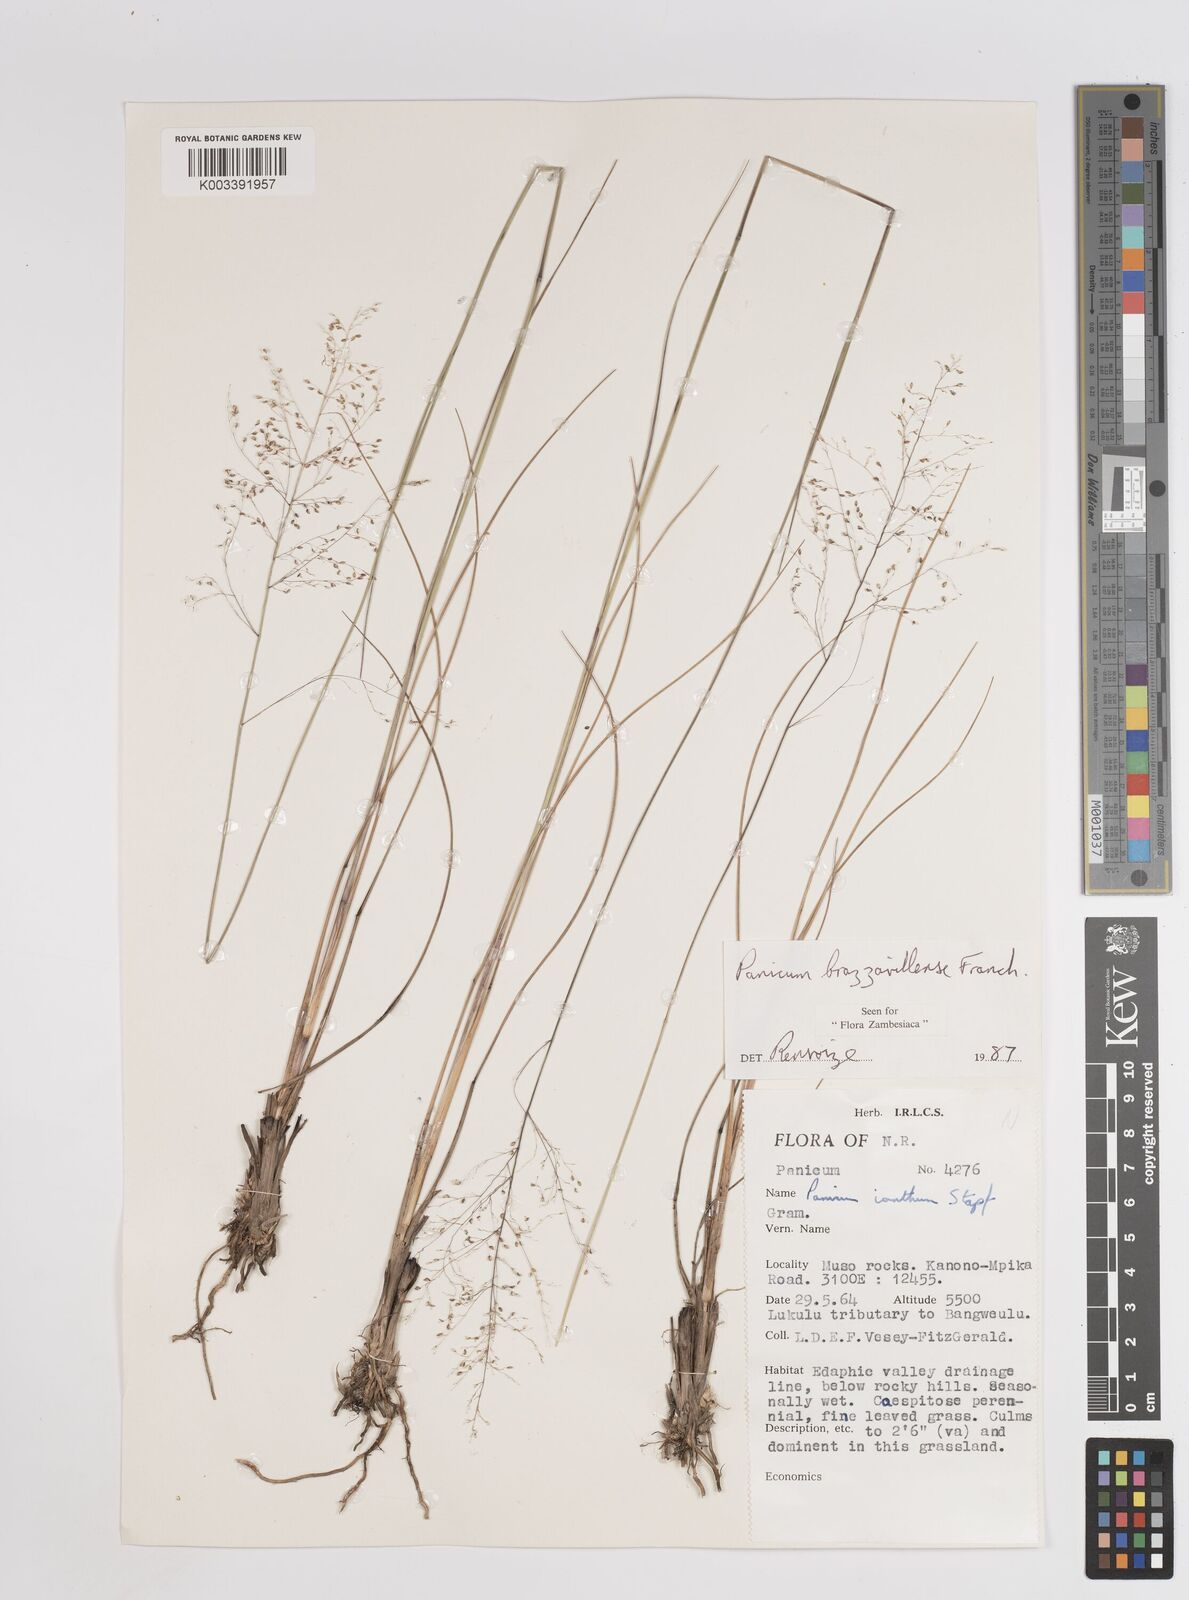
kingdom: Plantae
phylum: Tracheophyta
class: Liliopsida
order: Poales
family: Poaceae
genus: Trichanthecium
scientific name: Trichanthecium brazzavillense
